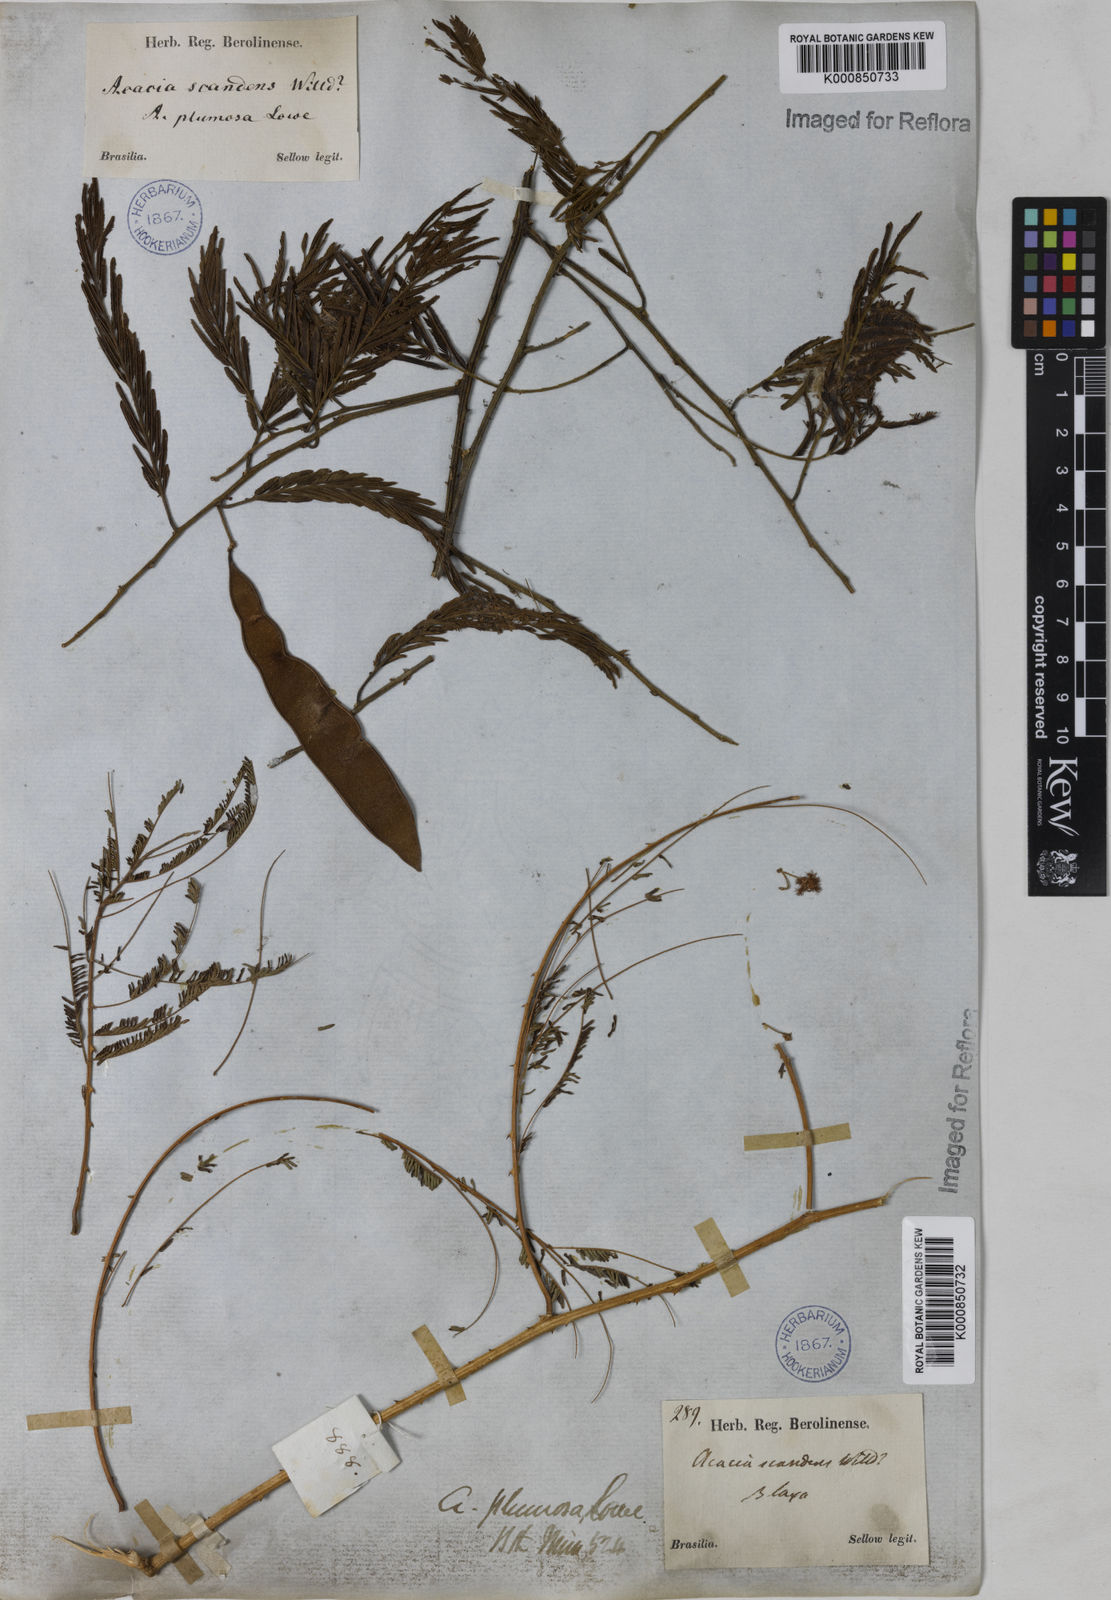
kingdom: Plantae
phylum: Tracheophyta
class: Magnoliopsida
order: Fabales
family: Fabaceae
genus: Senegalia
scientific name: Senegalia lowei
